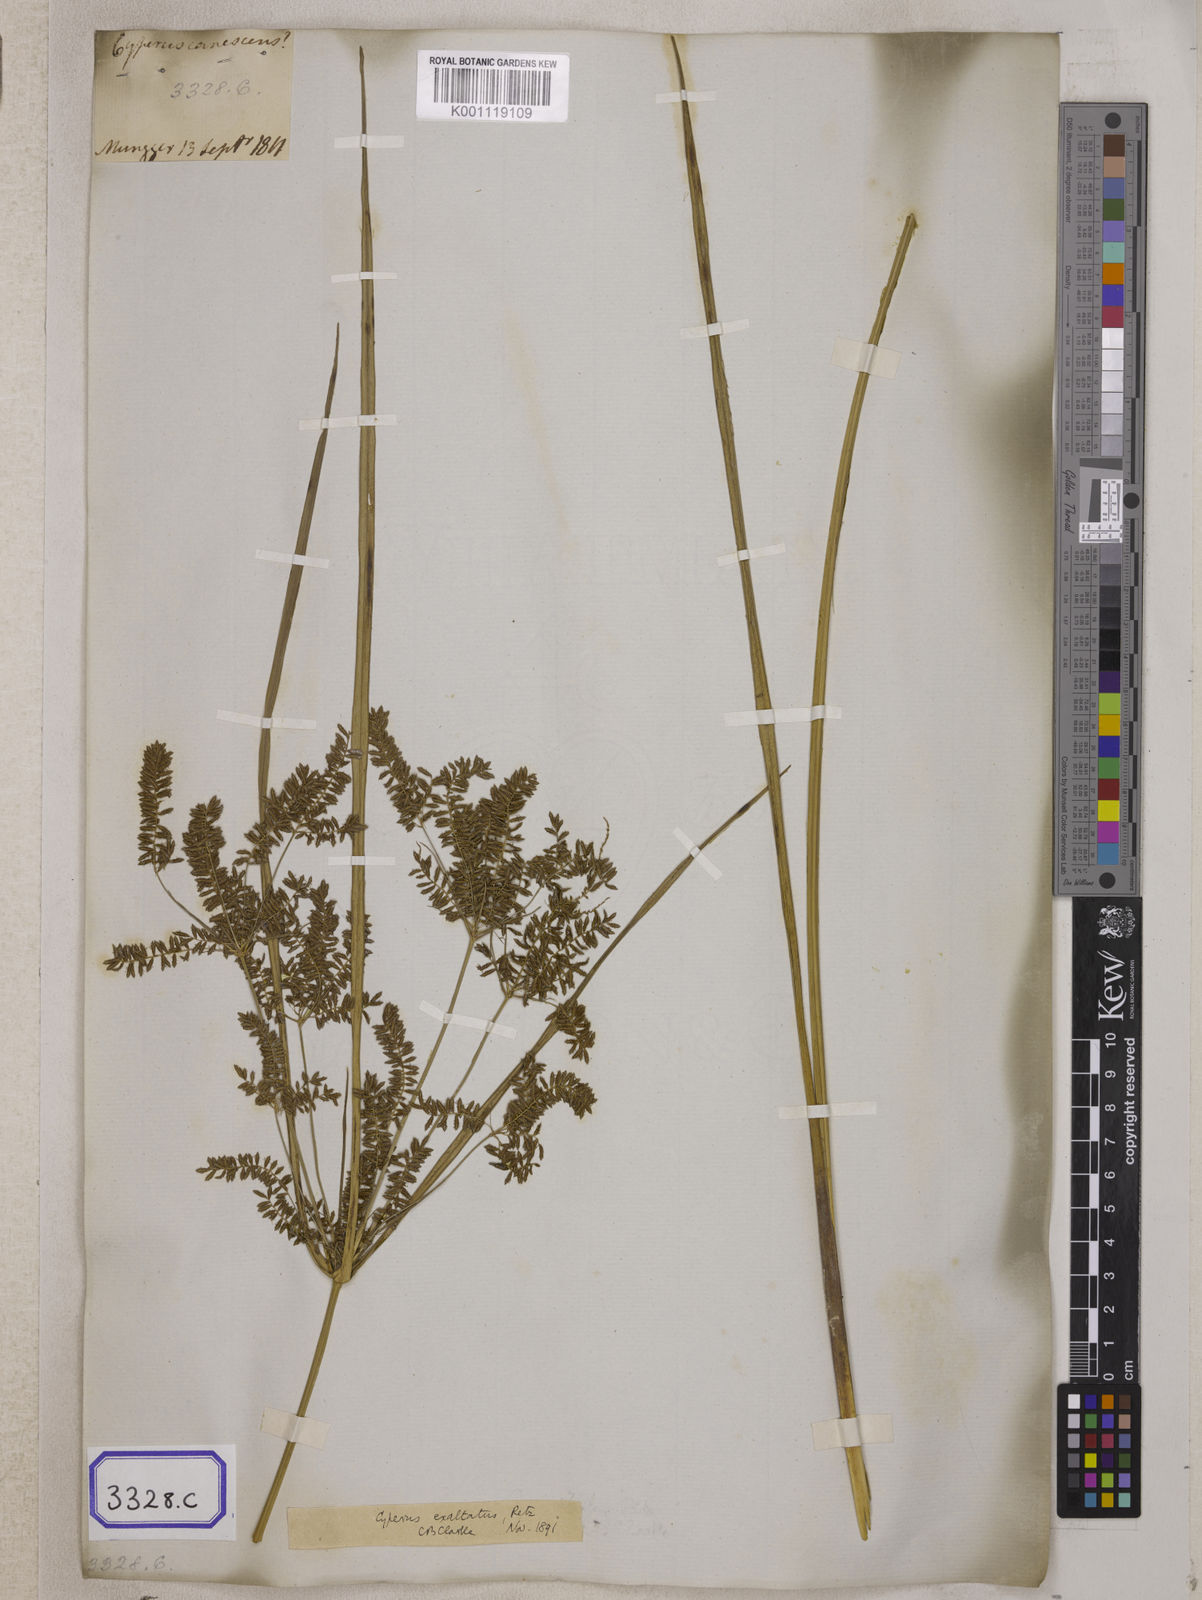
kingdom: Plantae
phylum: Tracheophyta
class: Liliopsida
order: Poales
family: Cyperaceae
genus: Cyperus
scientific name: Cyperus
